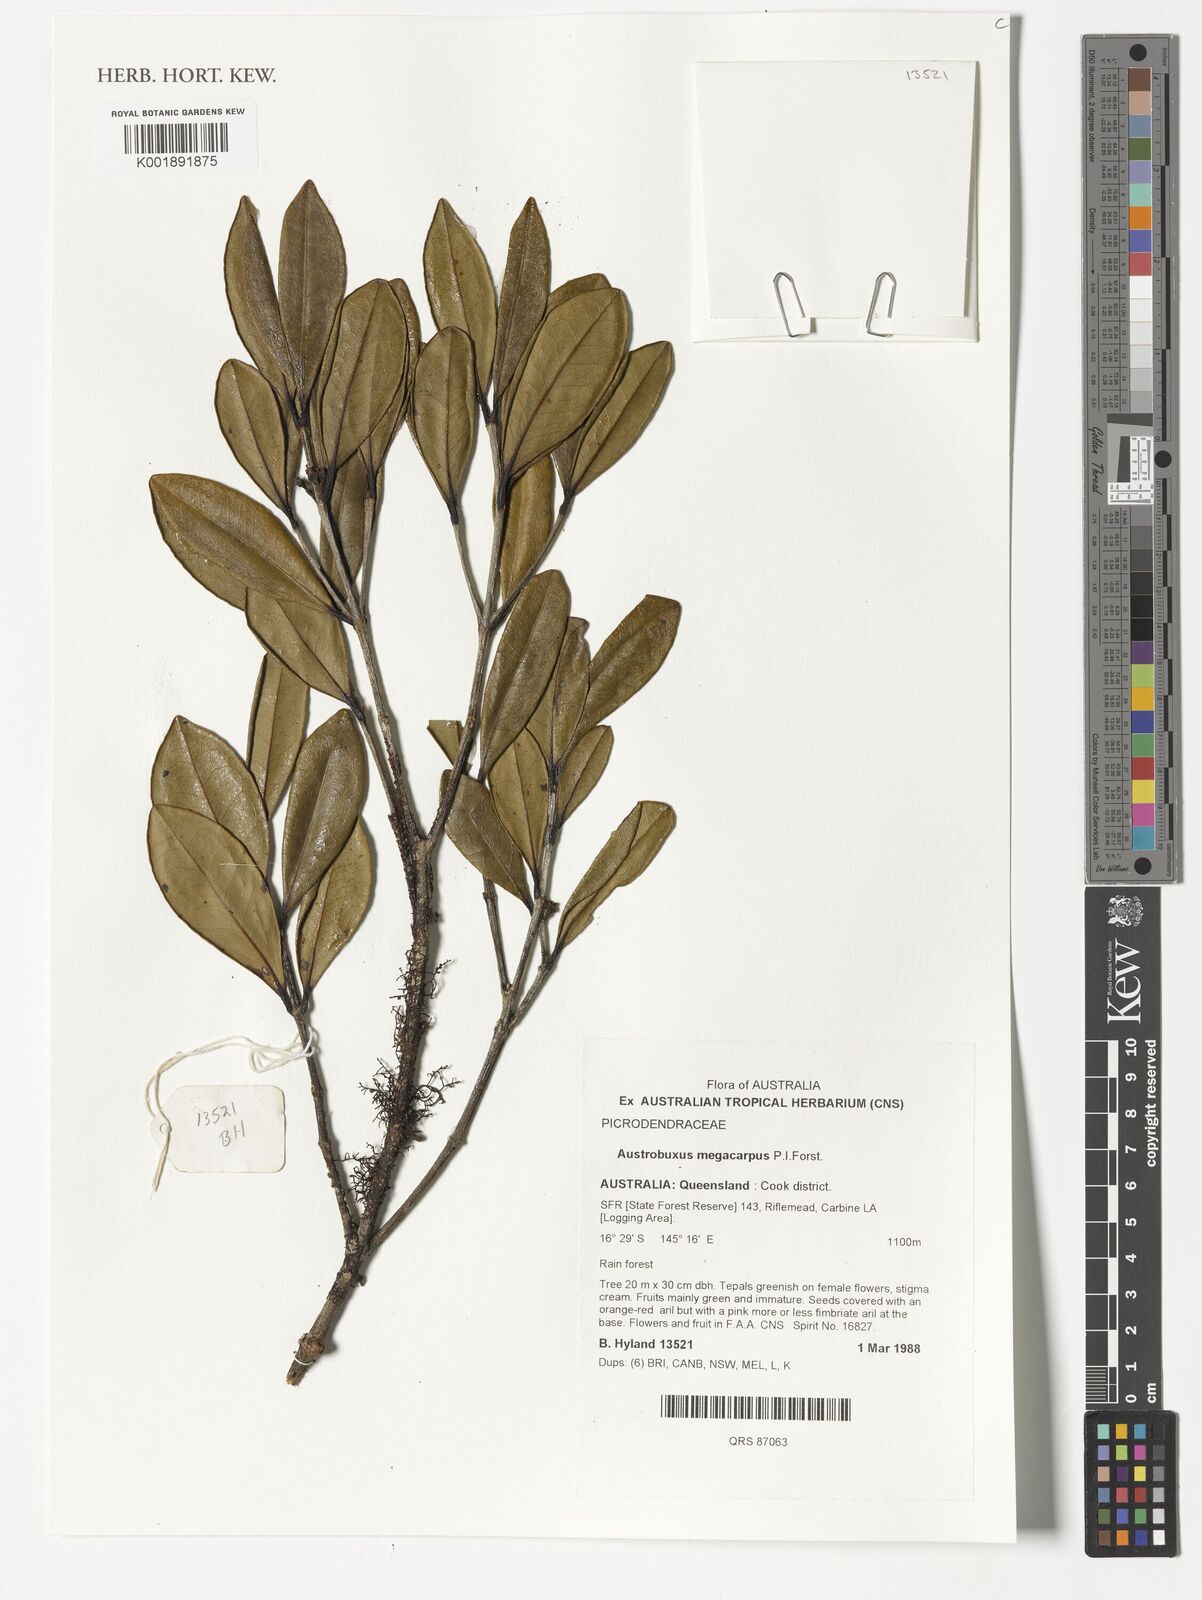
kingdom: Plantae
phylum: Tracheophyta
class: Magnoliopsida
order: Malpighiales
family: Picrodendraceae
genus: Austrobuxus
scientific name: Austrobuxus megacarpus
